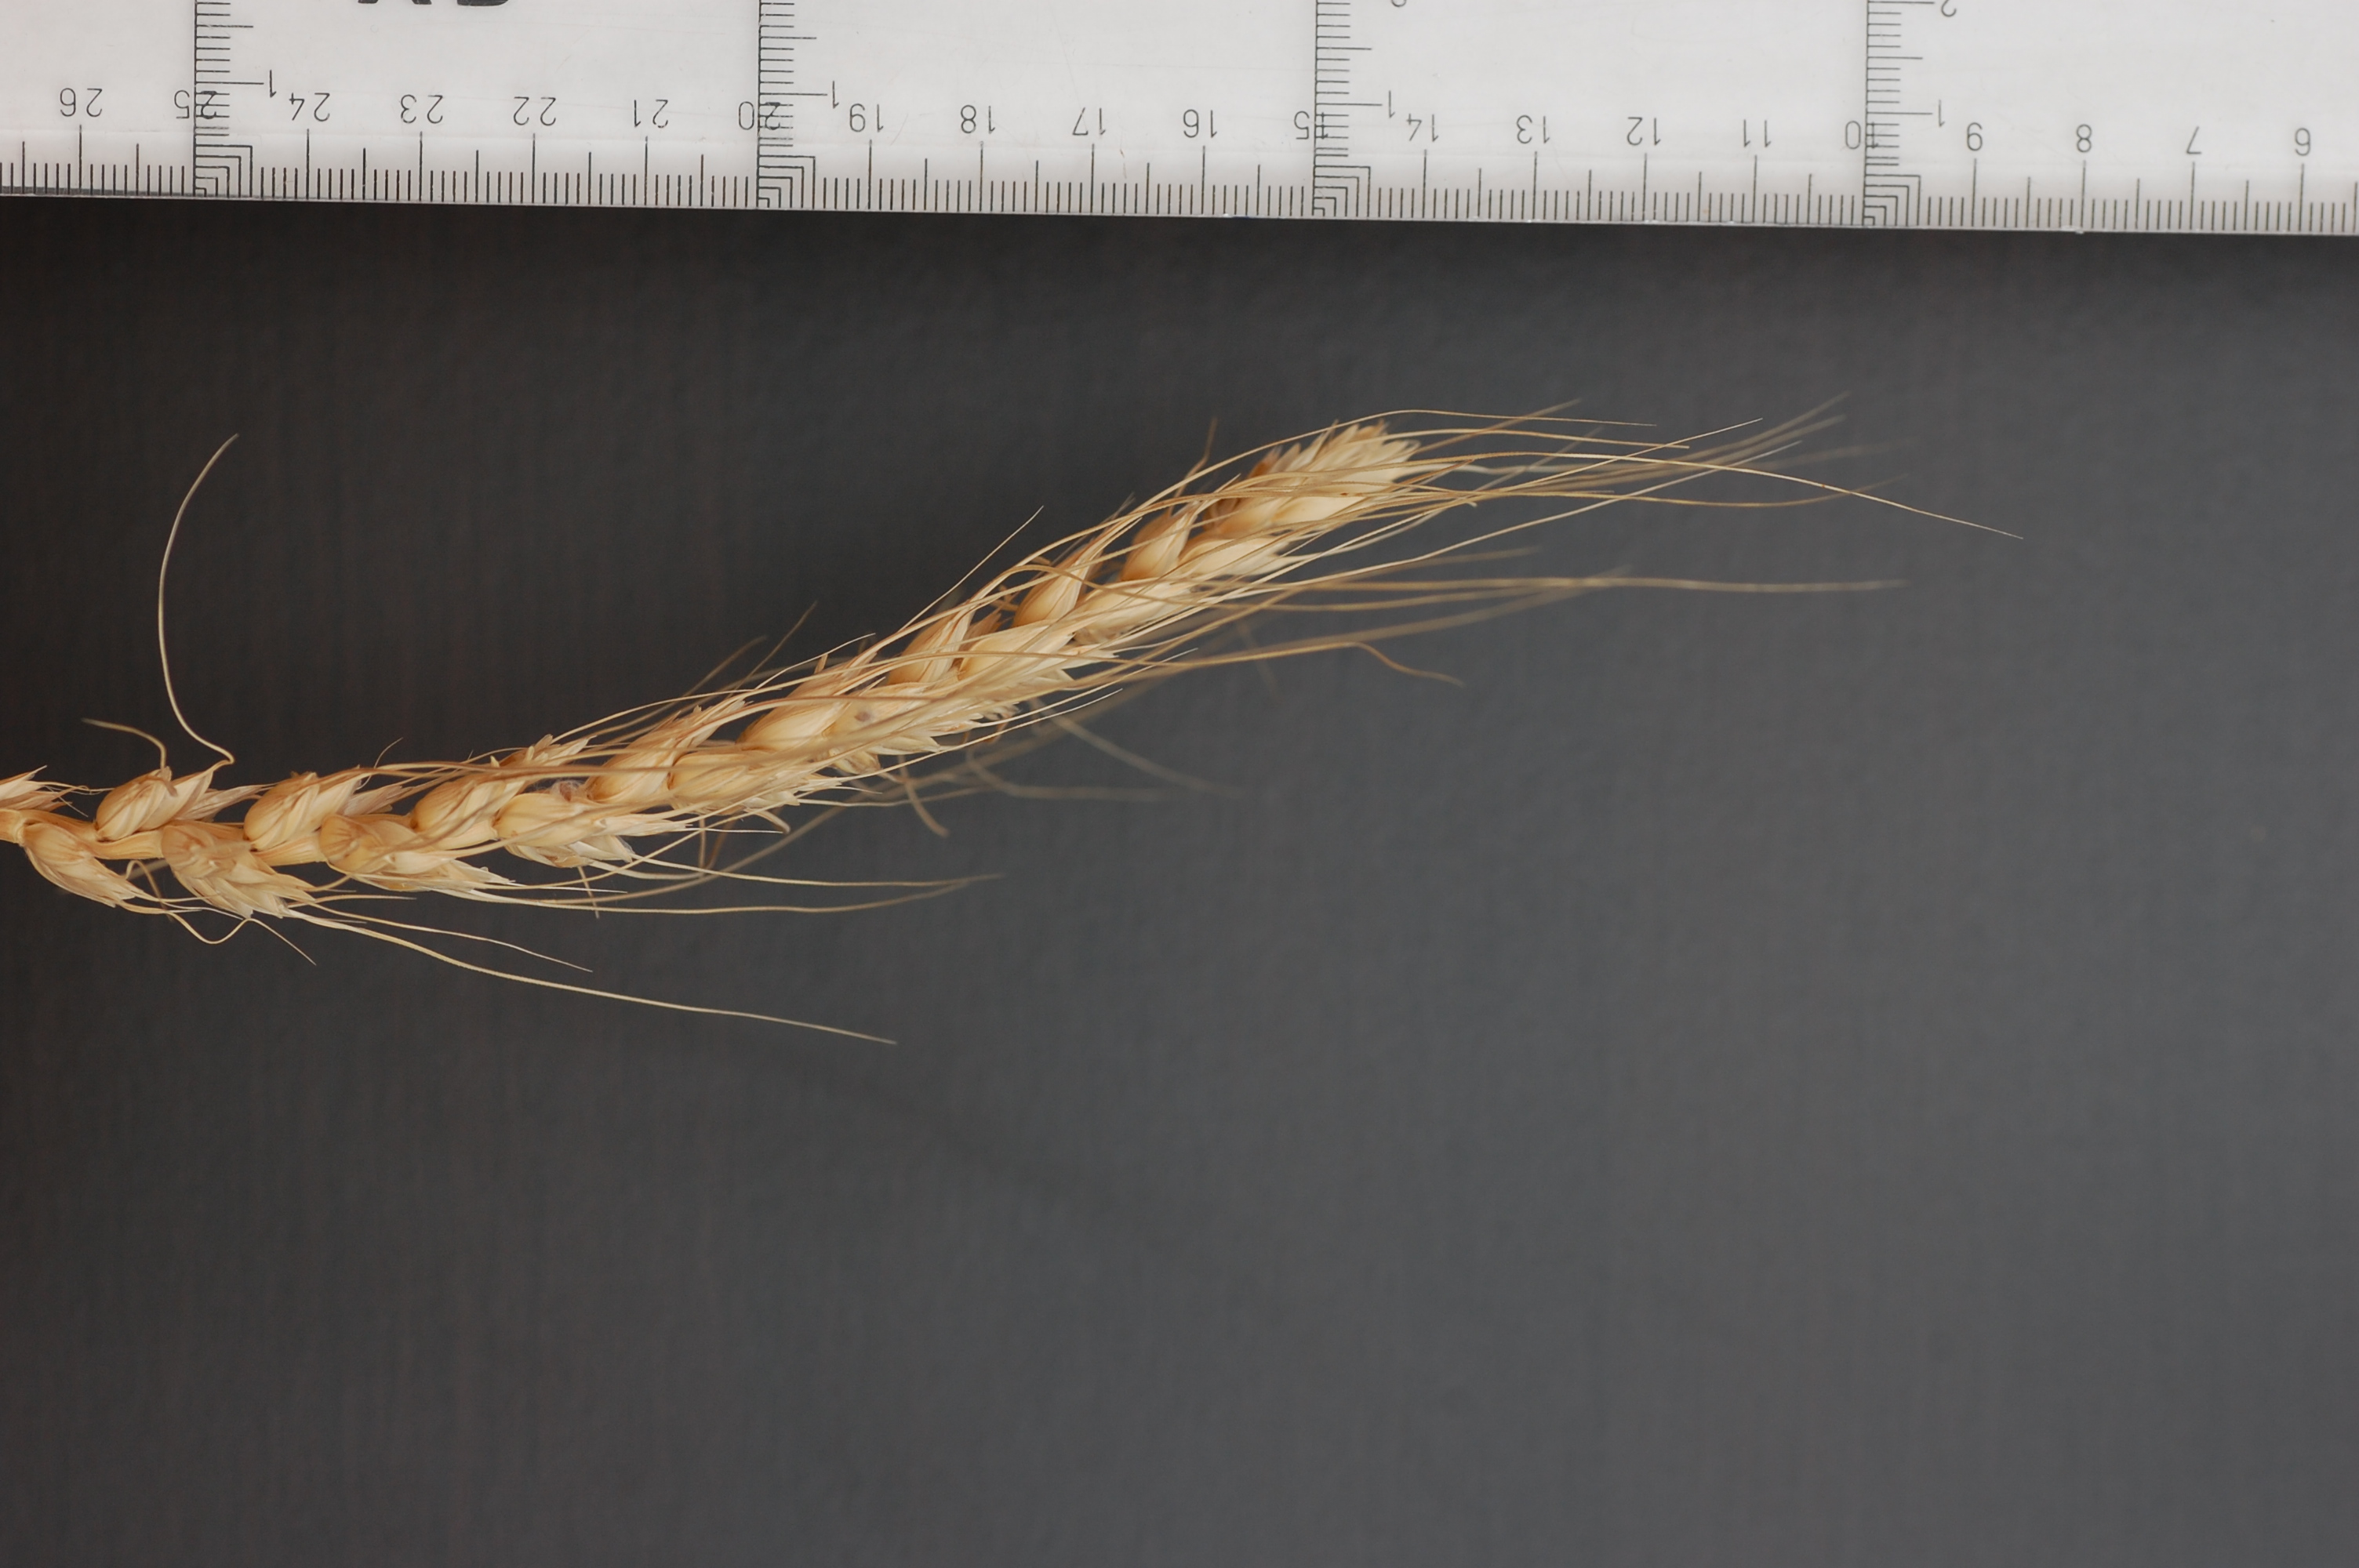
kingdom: Plantae
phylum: Tracheophyta
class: Liliopsida
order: Poales
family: Poaceae
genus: Triticum
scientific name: Triticum aestivum
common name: Common wheat
